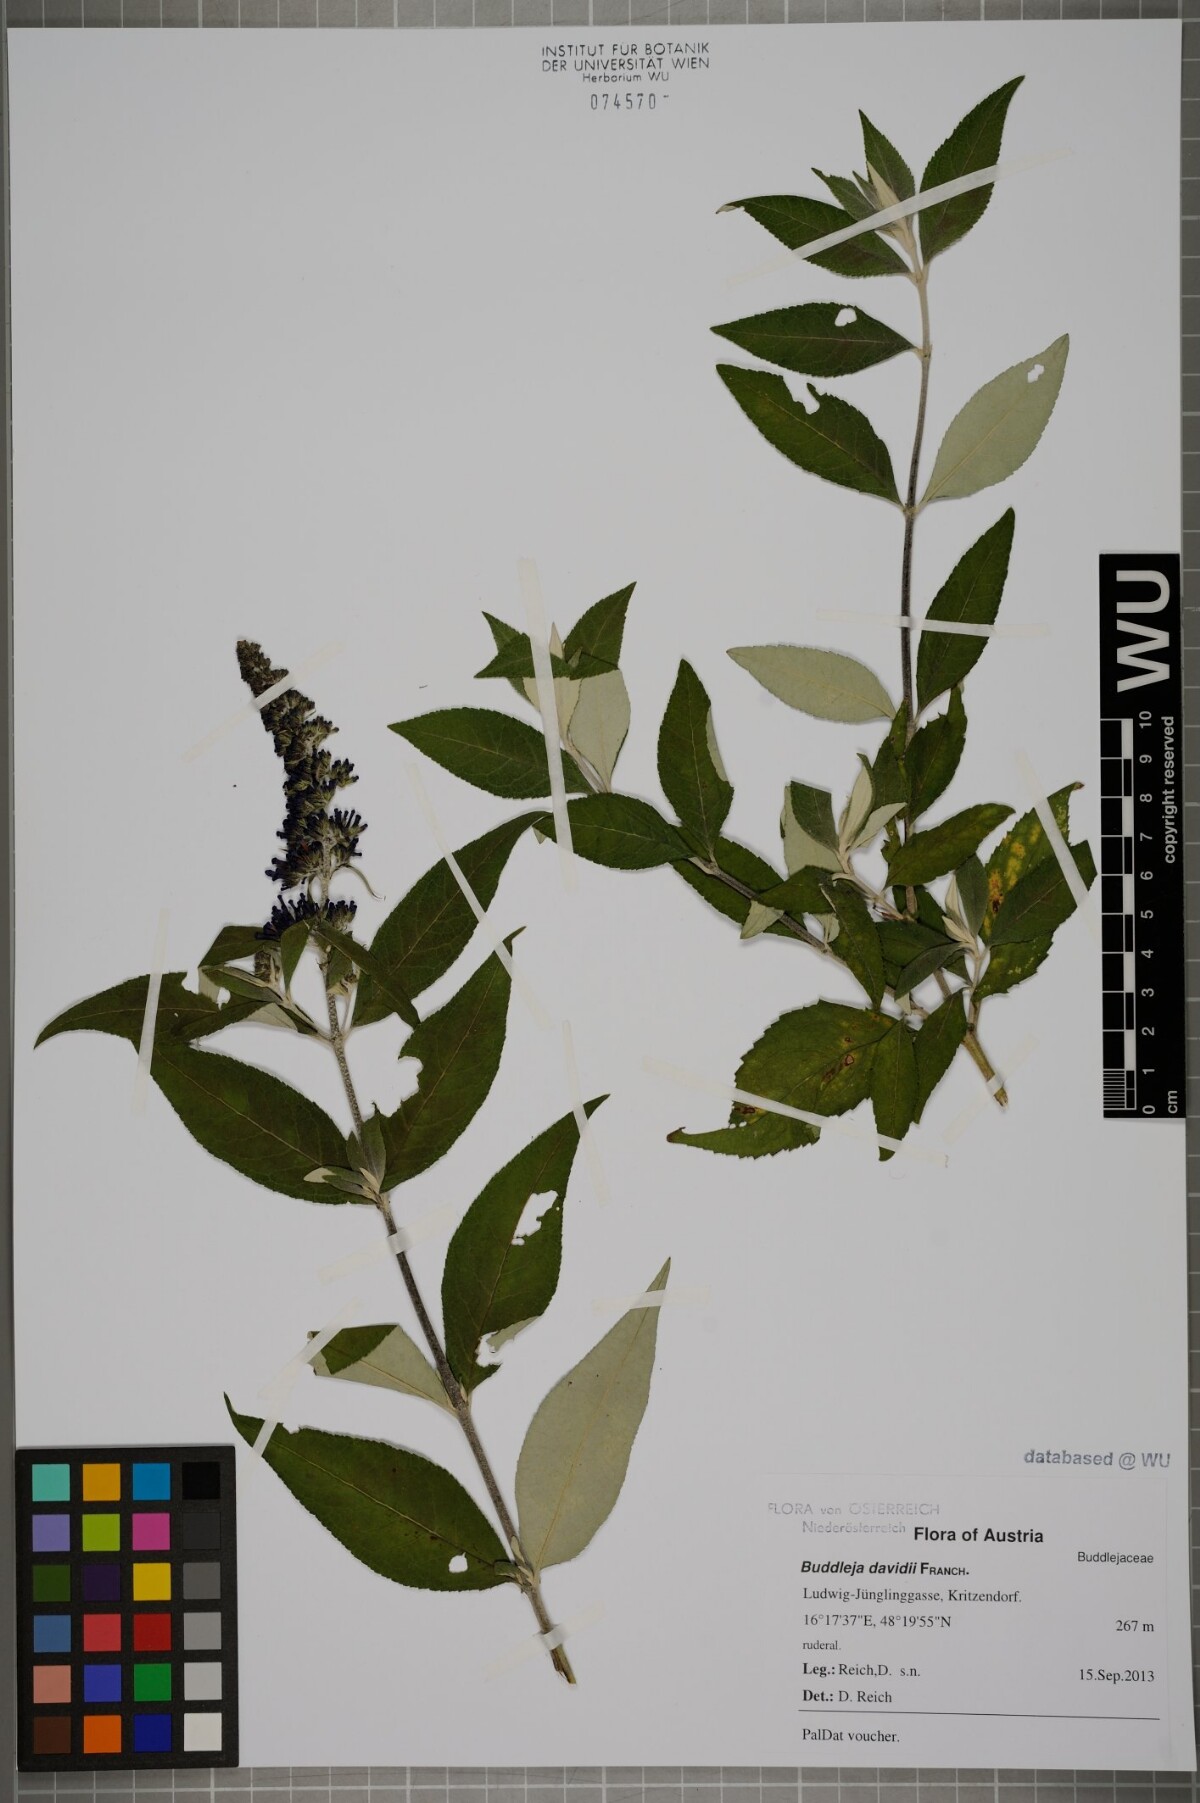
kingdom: Plantae
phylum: Tracheophyta
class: Magnoliopsida
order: Lamiales
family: Scrophulariaceae
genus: Buddleja
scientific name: Buddleja davidii
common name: Butterfly-bush
